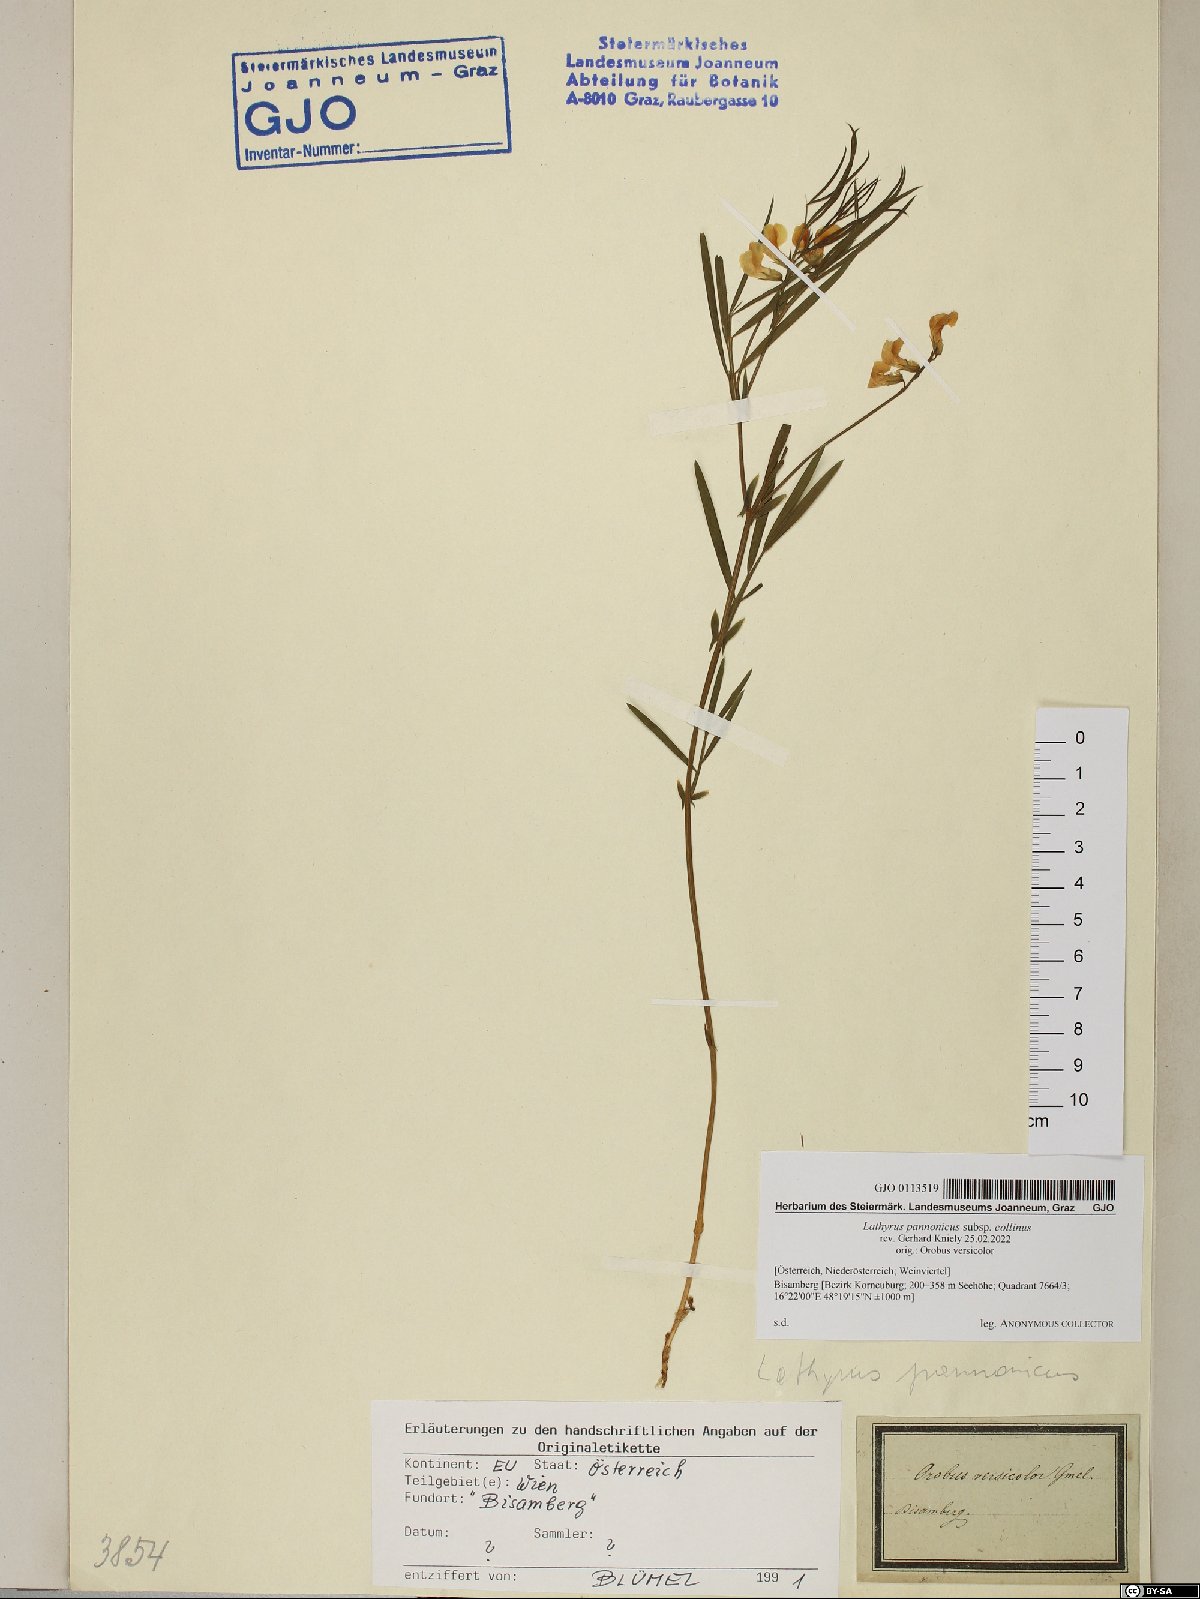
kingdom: Plantae
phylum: Tracheophyta
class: Magnoliopsida
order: Fabales
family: Fabaceae
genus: Lathyrus
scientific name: Lathyrus pannonicus
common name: Pea
